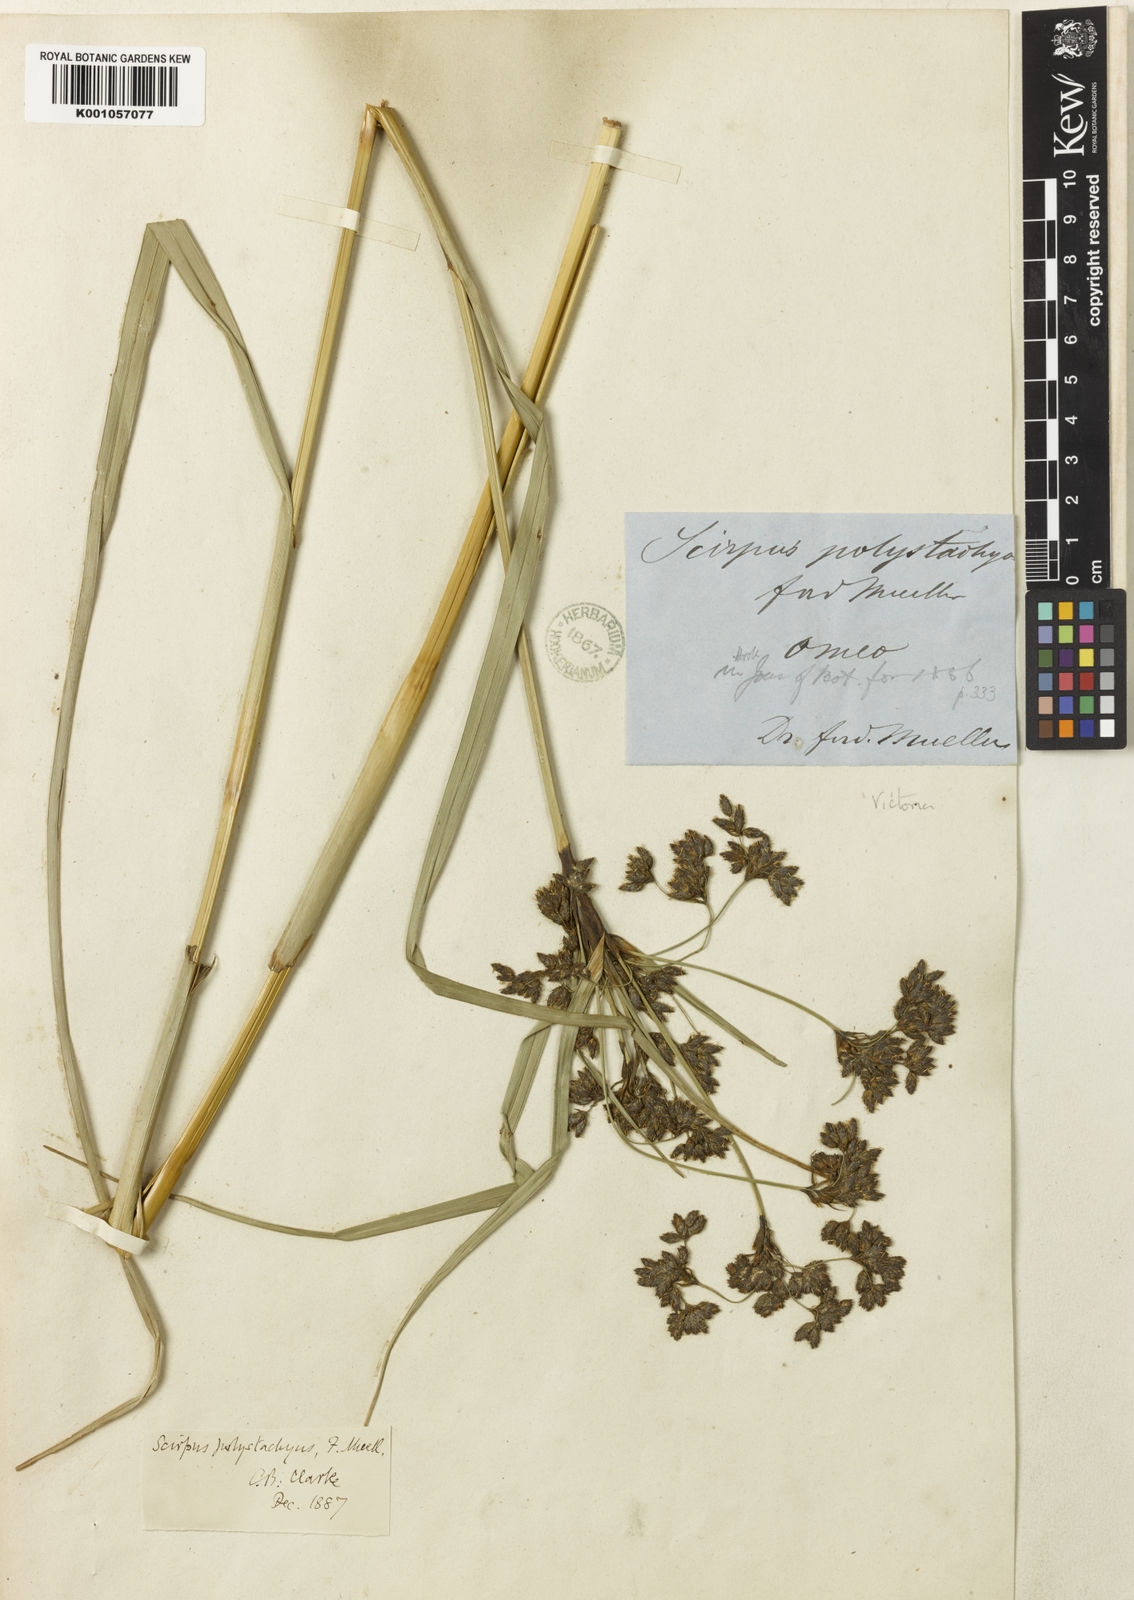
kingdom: Plantae
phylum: Tracheophyta
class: Liliopsida
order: Poales
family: Cyperaceae
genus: Scirpus
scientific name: Scirpus polystachyus
